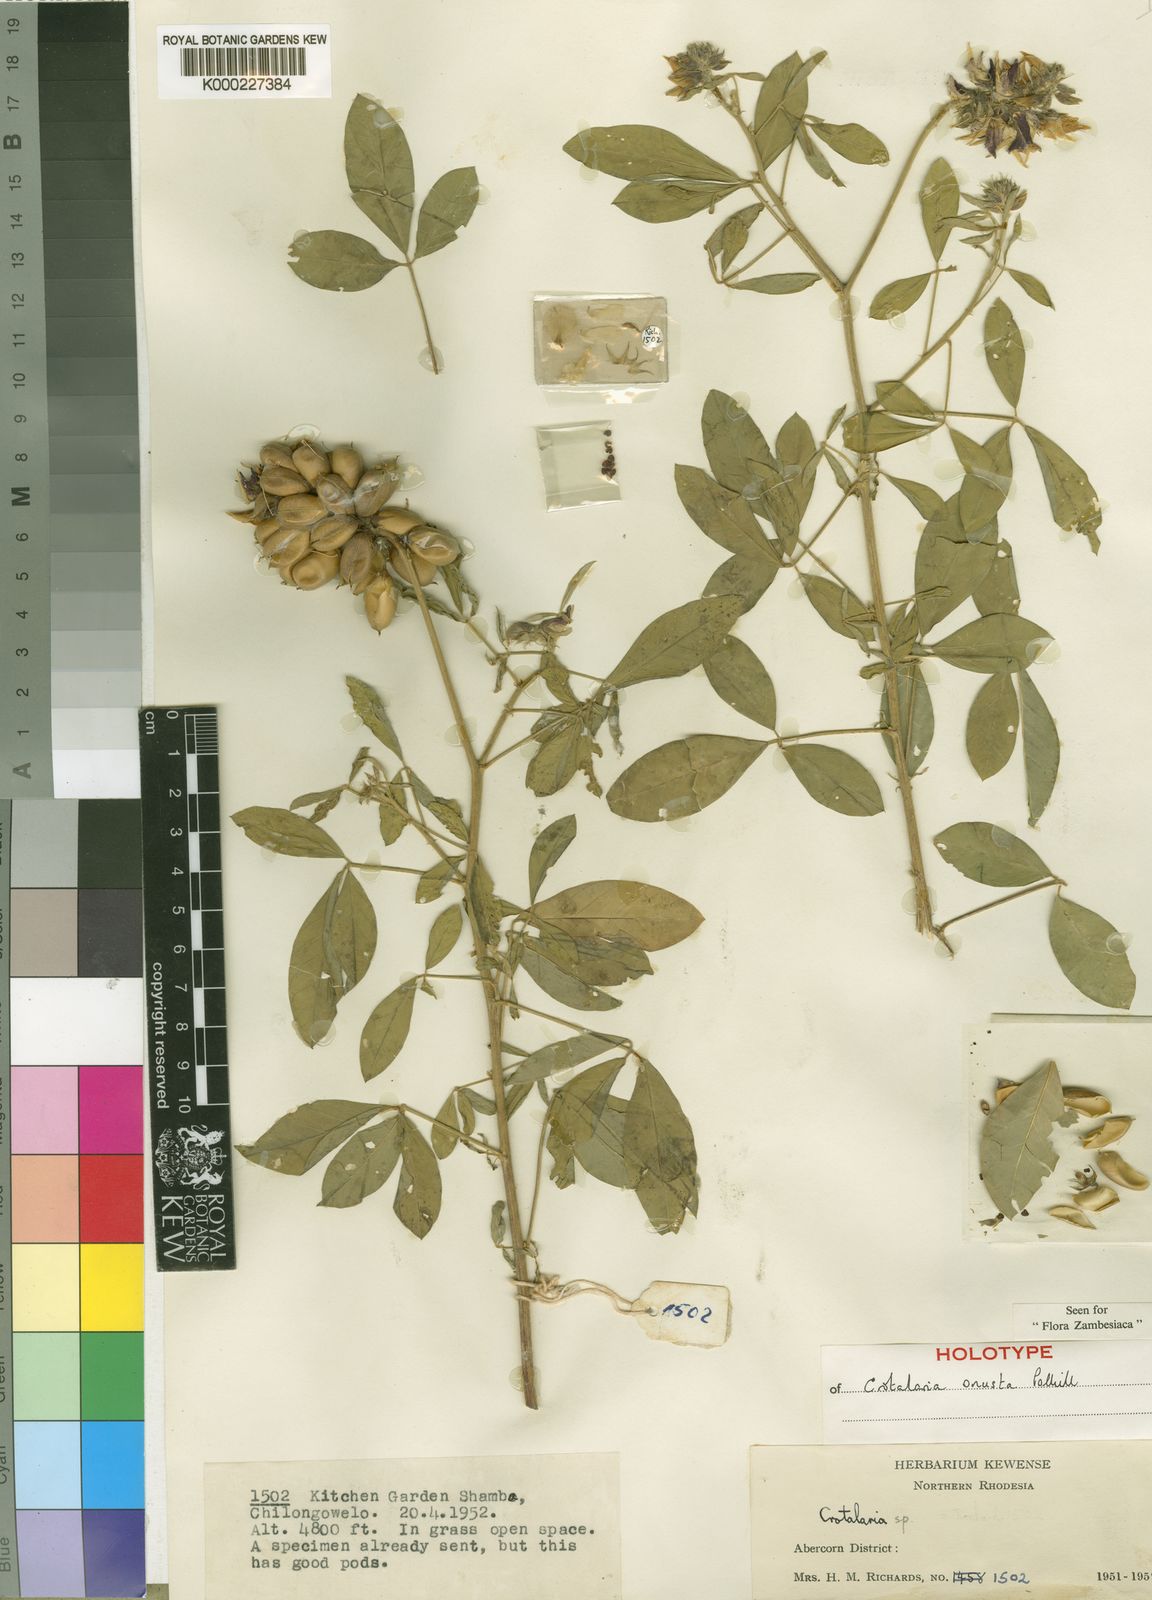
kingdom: Plantae
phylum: Tracheophyta
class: Magnoliopsida
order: Fabales
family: Fabaceae
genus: Crotalaria
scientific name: Crotalaria onusta
